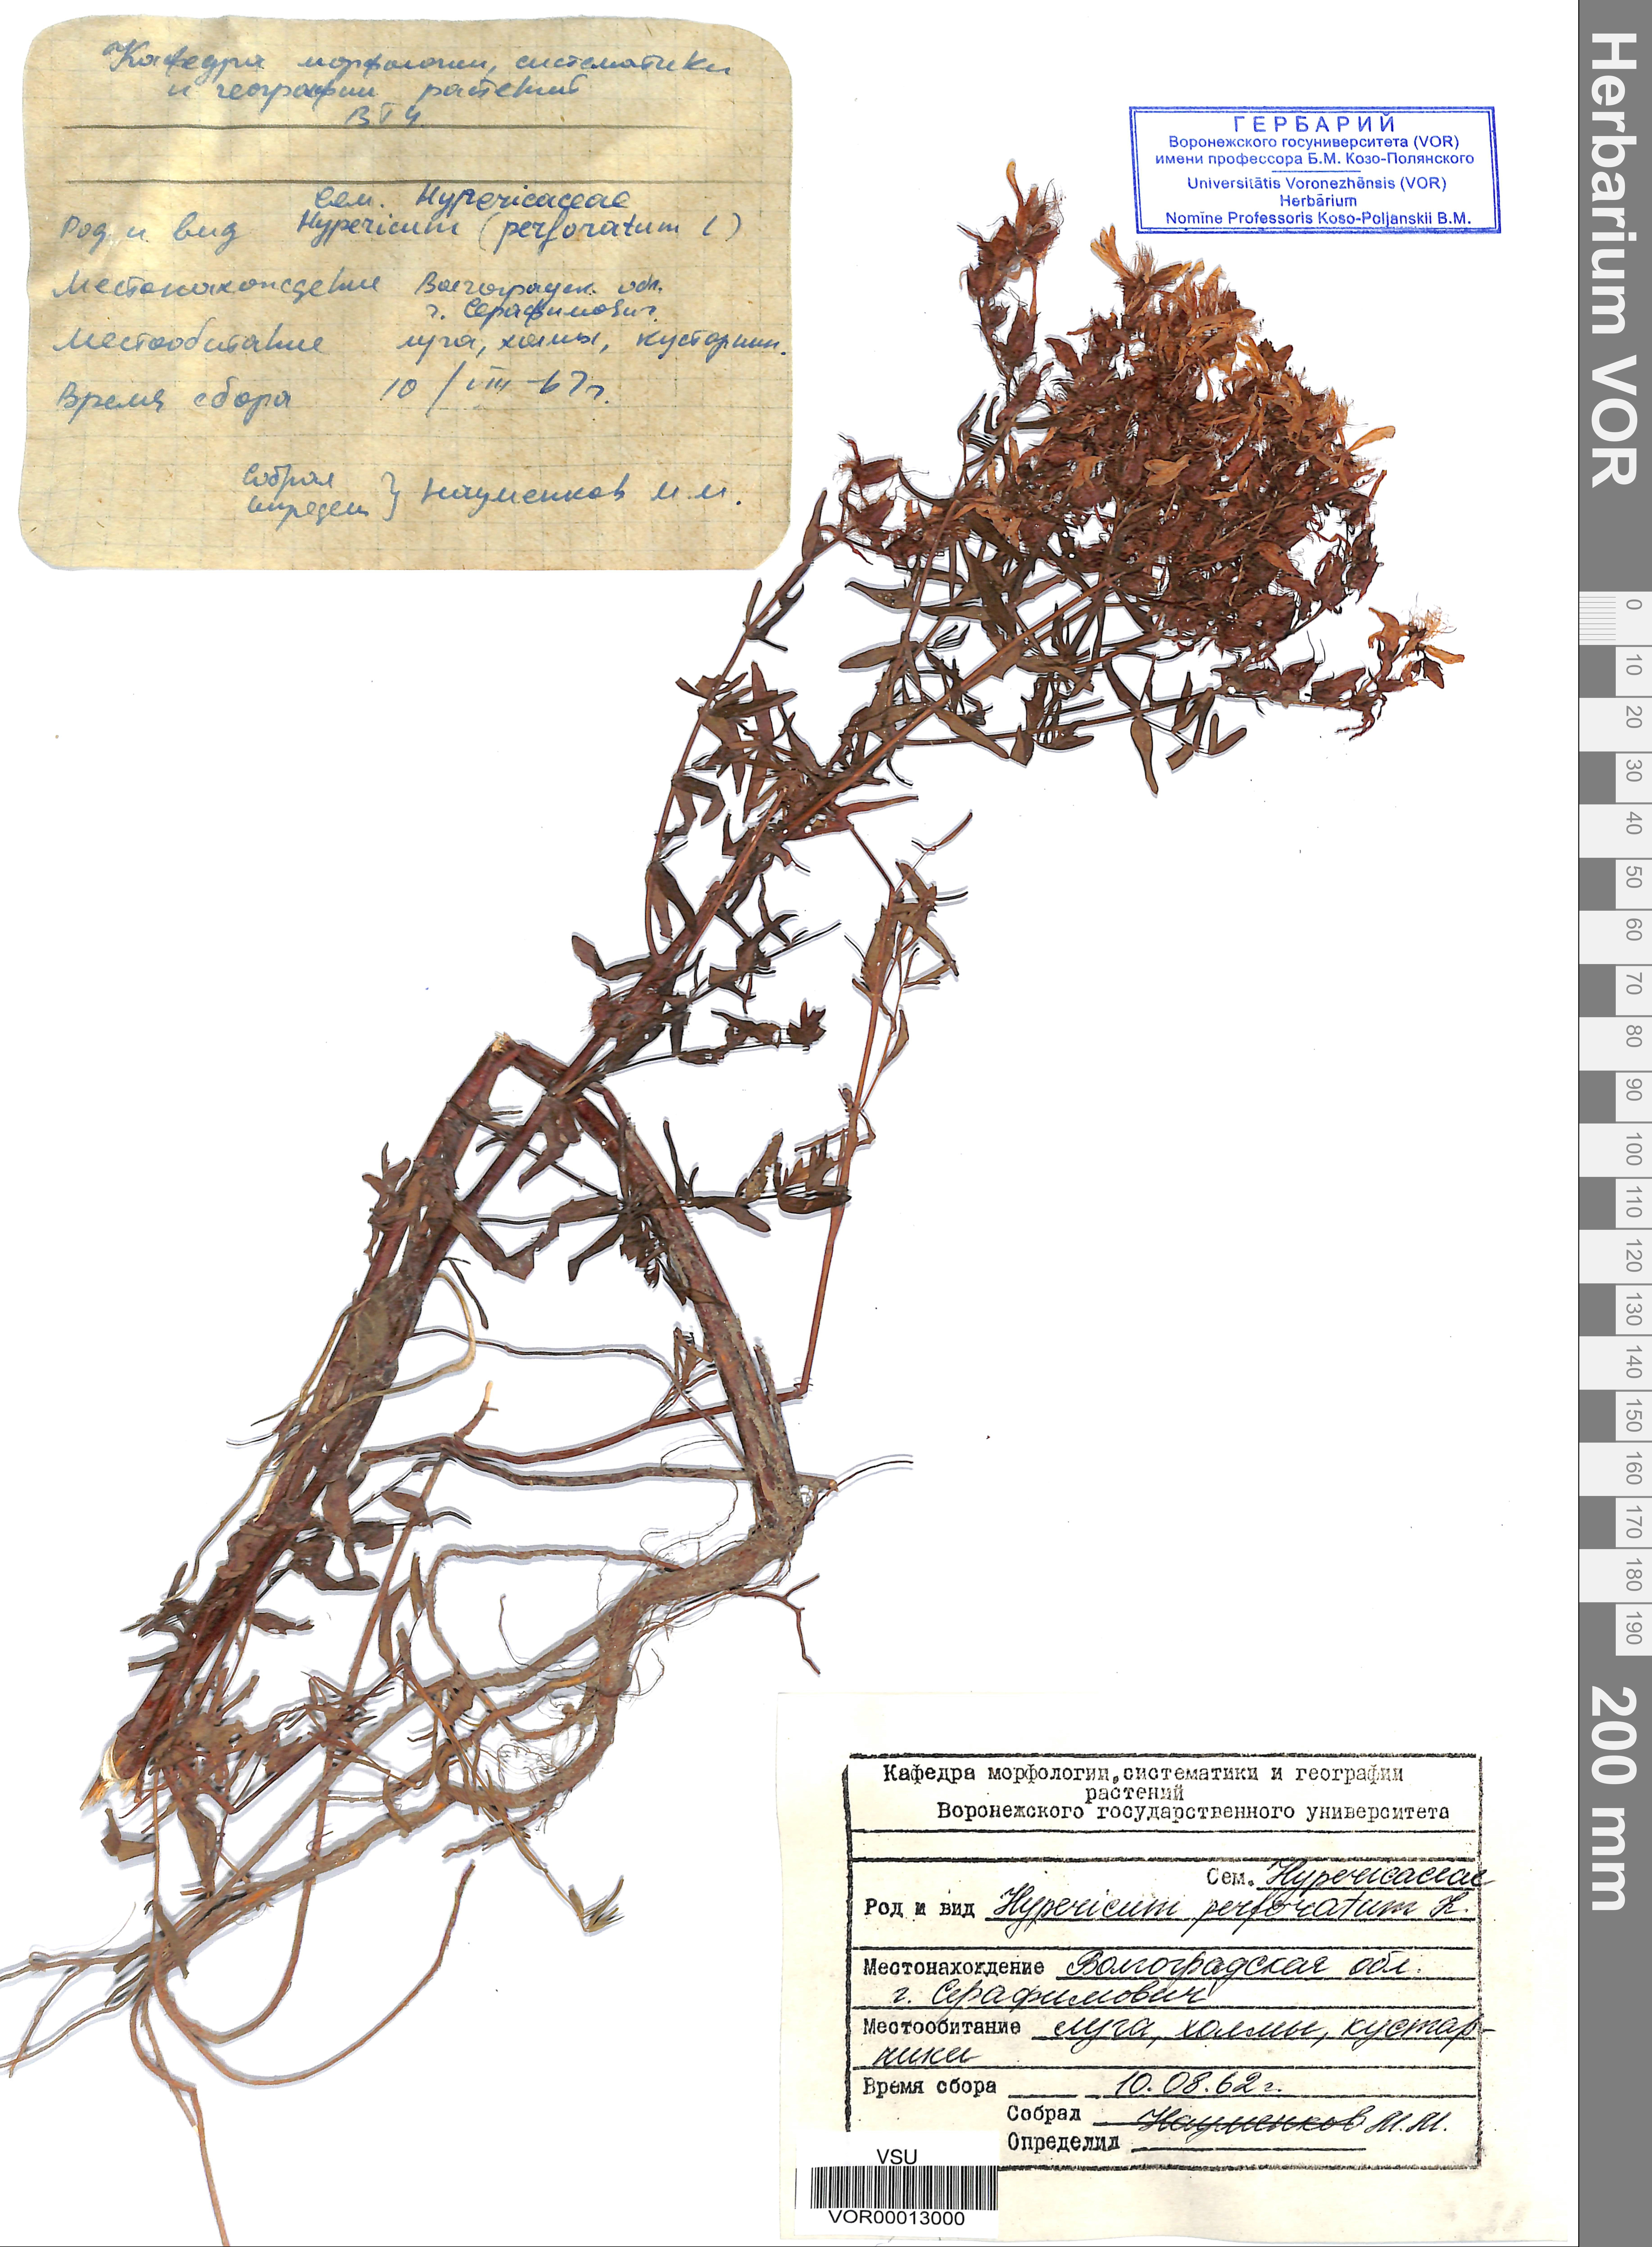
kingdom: Plantae
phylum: Tracheophyta
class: Magnoliopsida
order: Malpighiales
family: Hypericaceae
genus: Hypericum
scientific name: Hypericum perforatum
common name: Common st. johnswort
